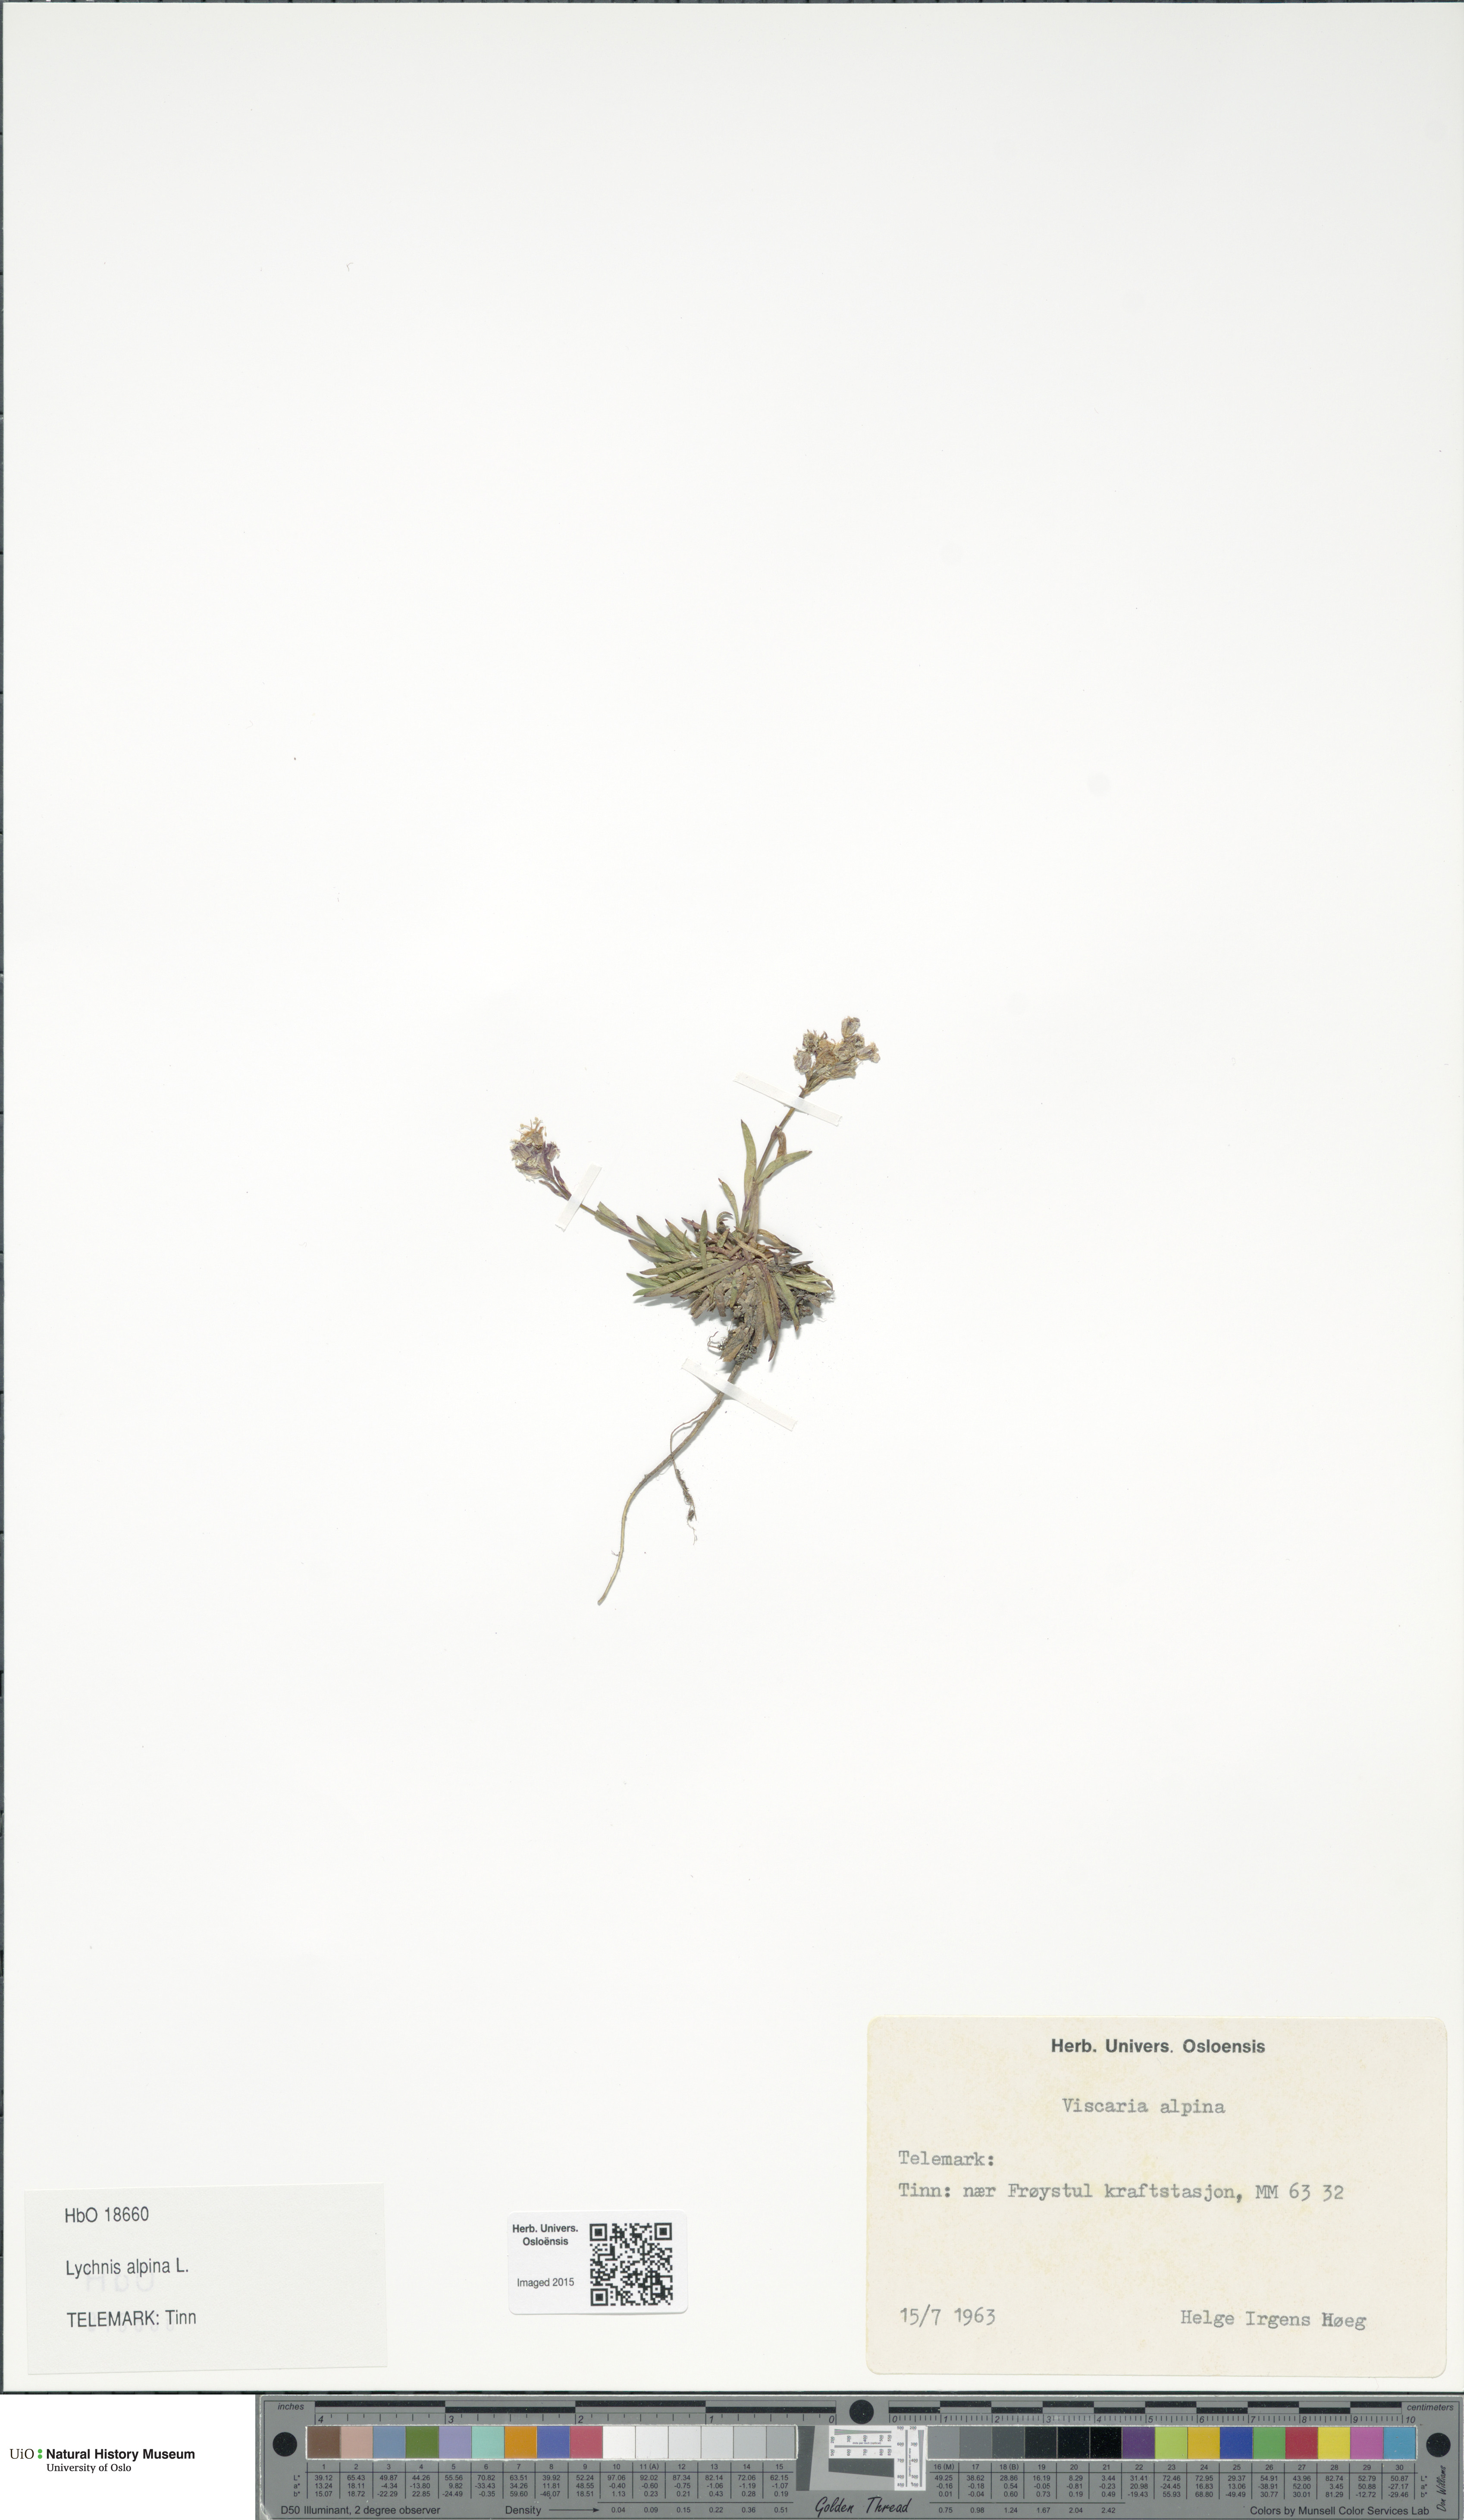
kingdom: Plantae
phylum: Tracheophyta
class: Magnoliopsida
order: Caryophyllales
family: Caryophyllaceae
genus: Viscaria
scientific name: Viscaria alpina
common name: Alpine campion
